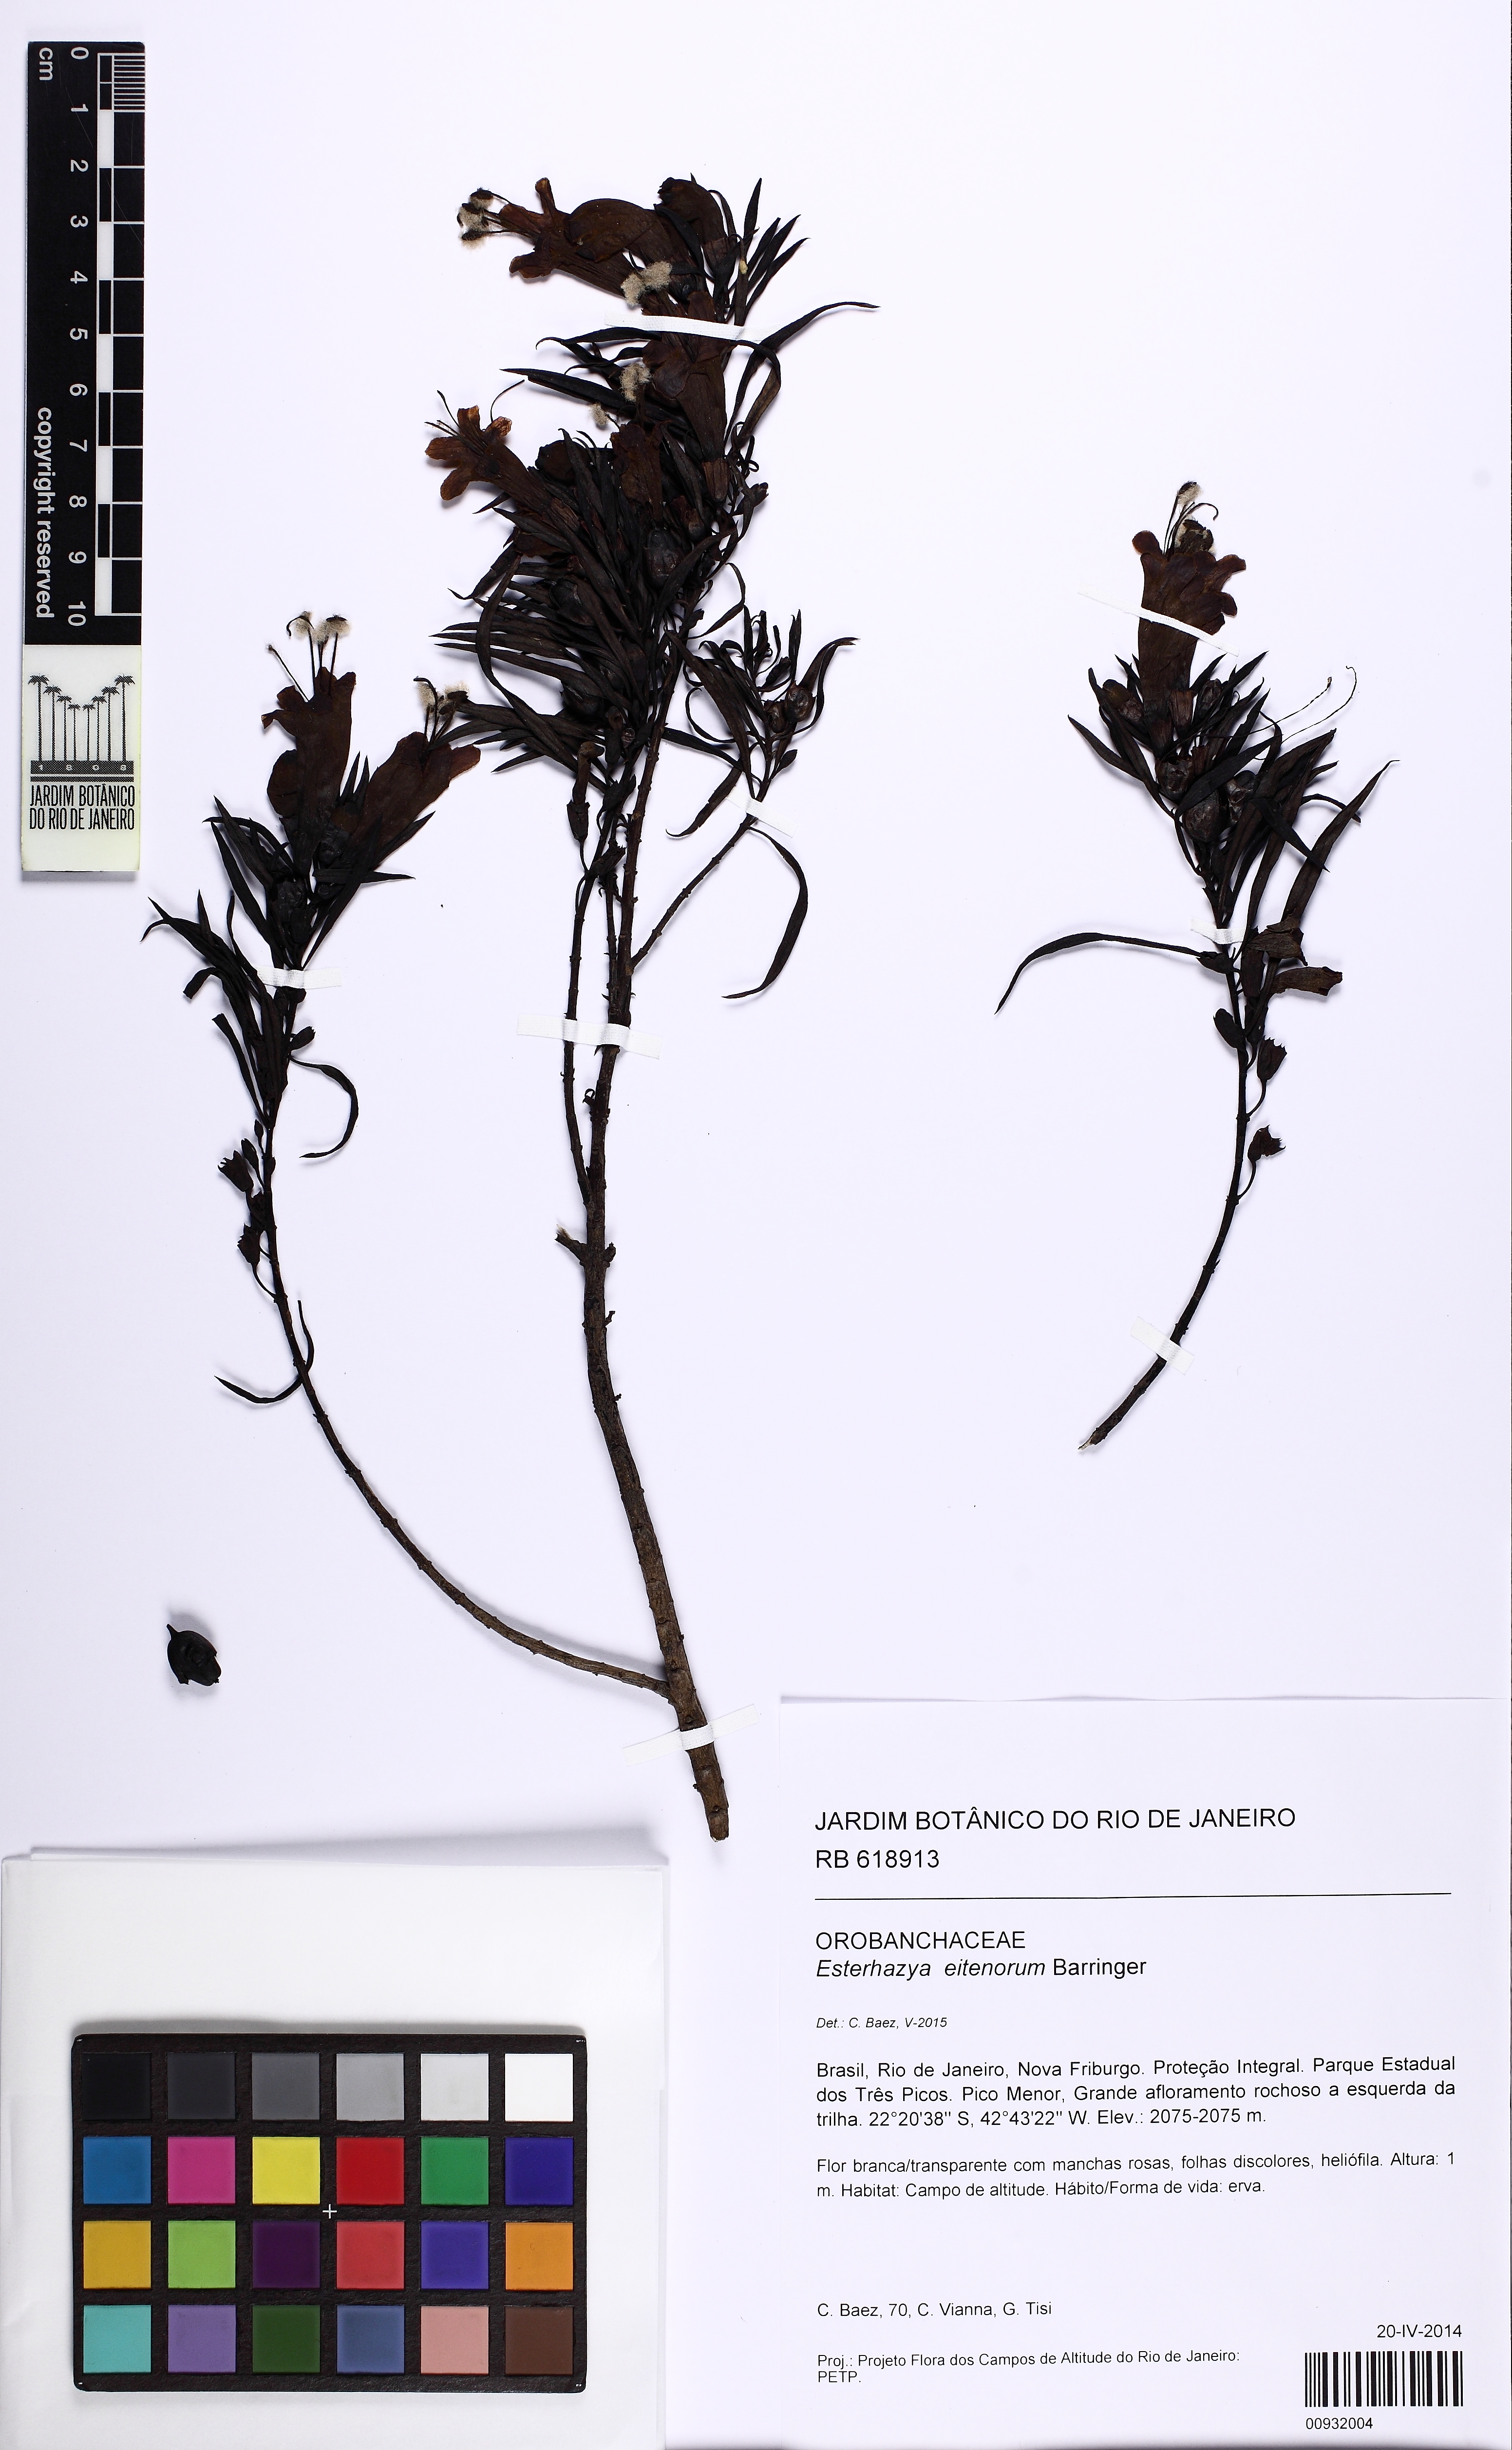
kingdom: Plantae
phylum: Tracheophyta
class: Magnoliopsida
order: Lamiales
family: Orobanchaceae
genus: Esterhazya
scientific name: Esterhazya eitenorum
